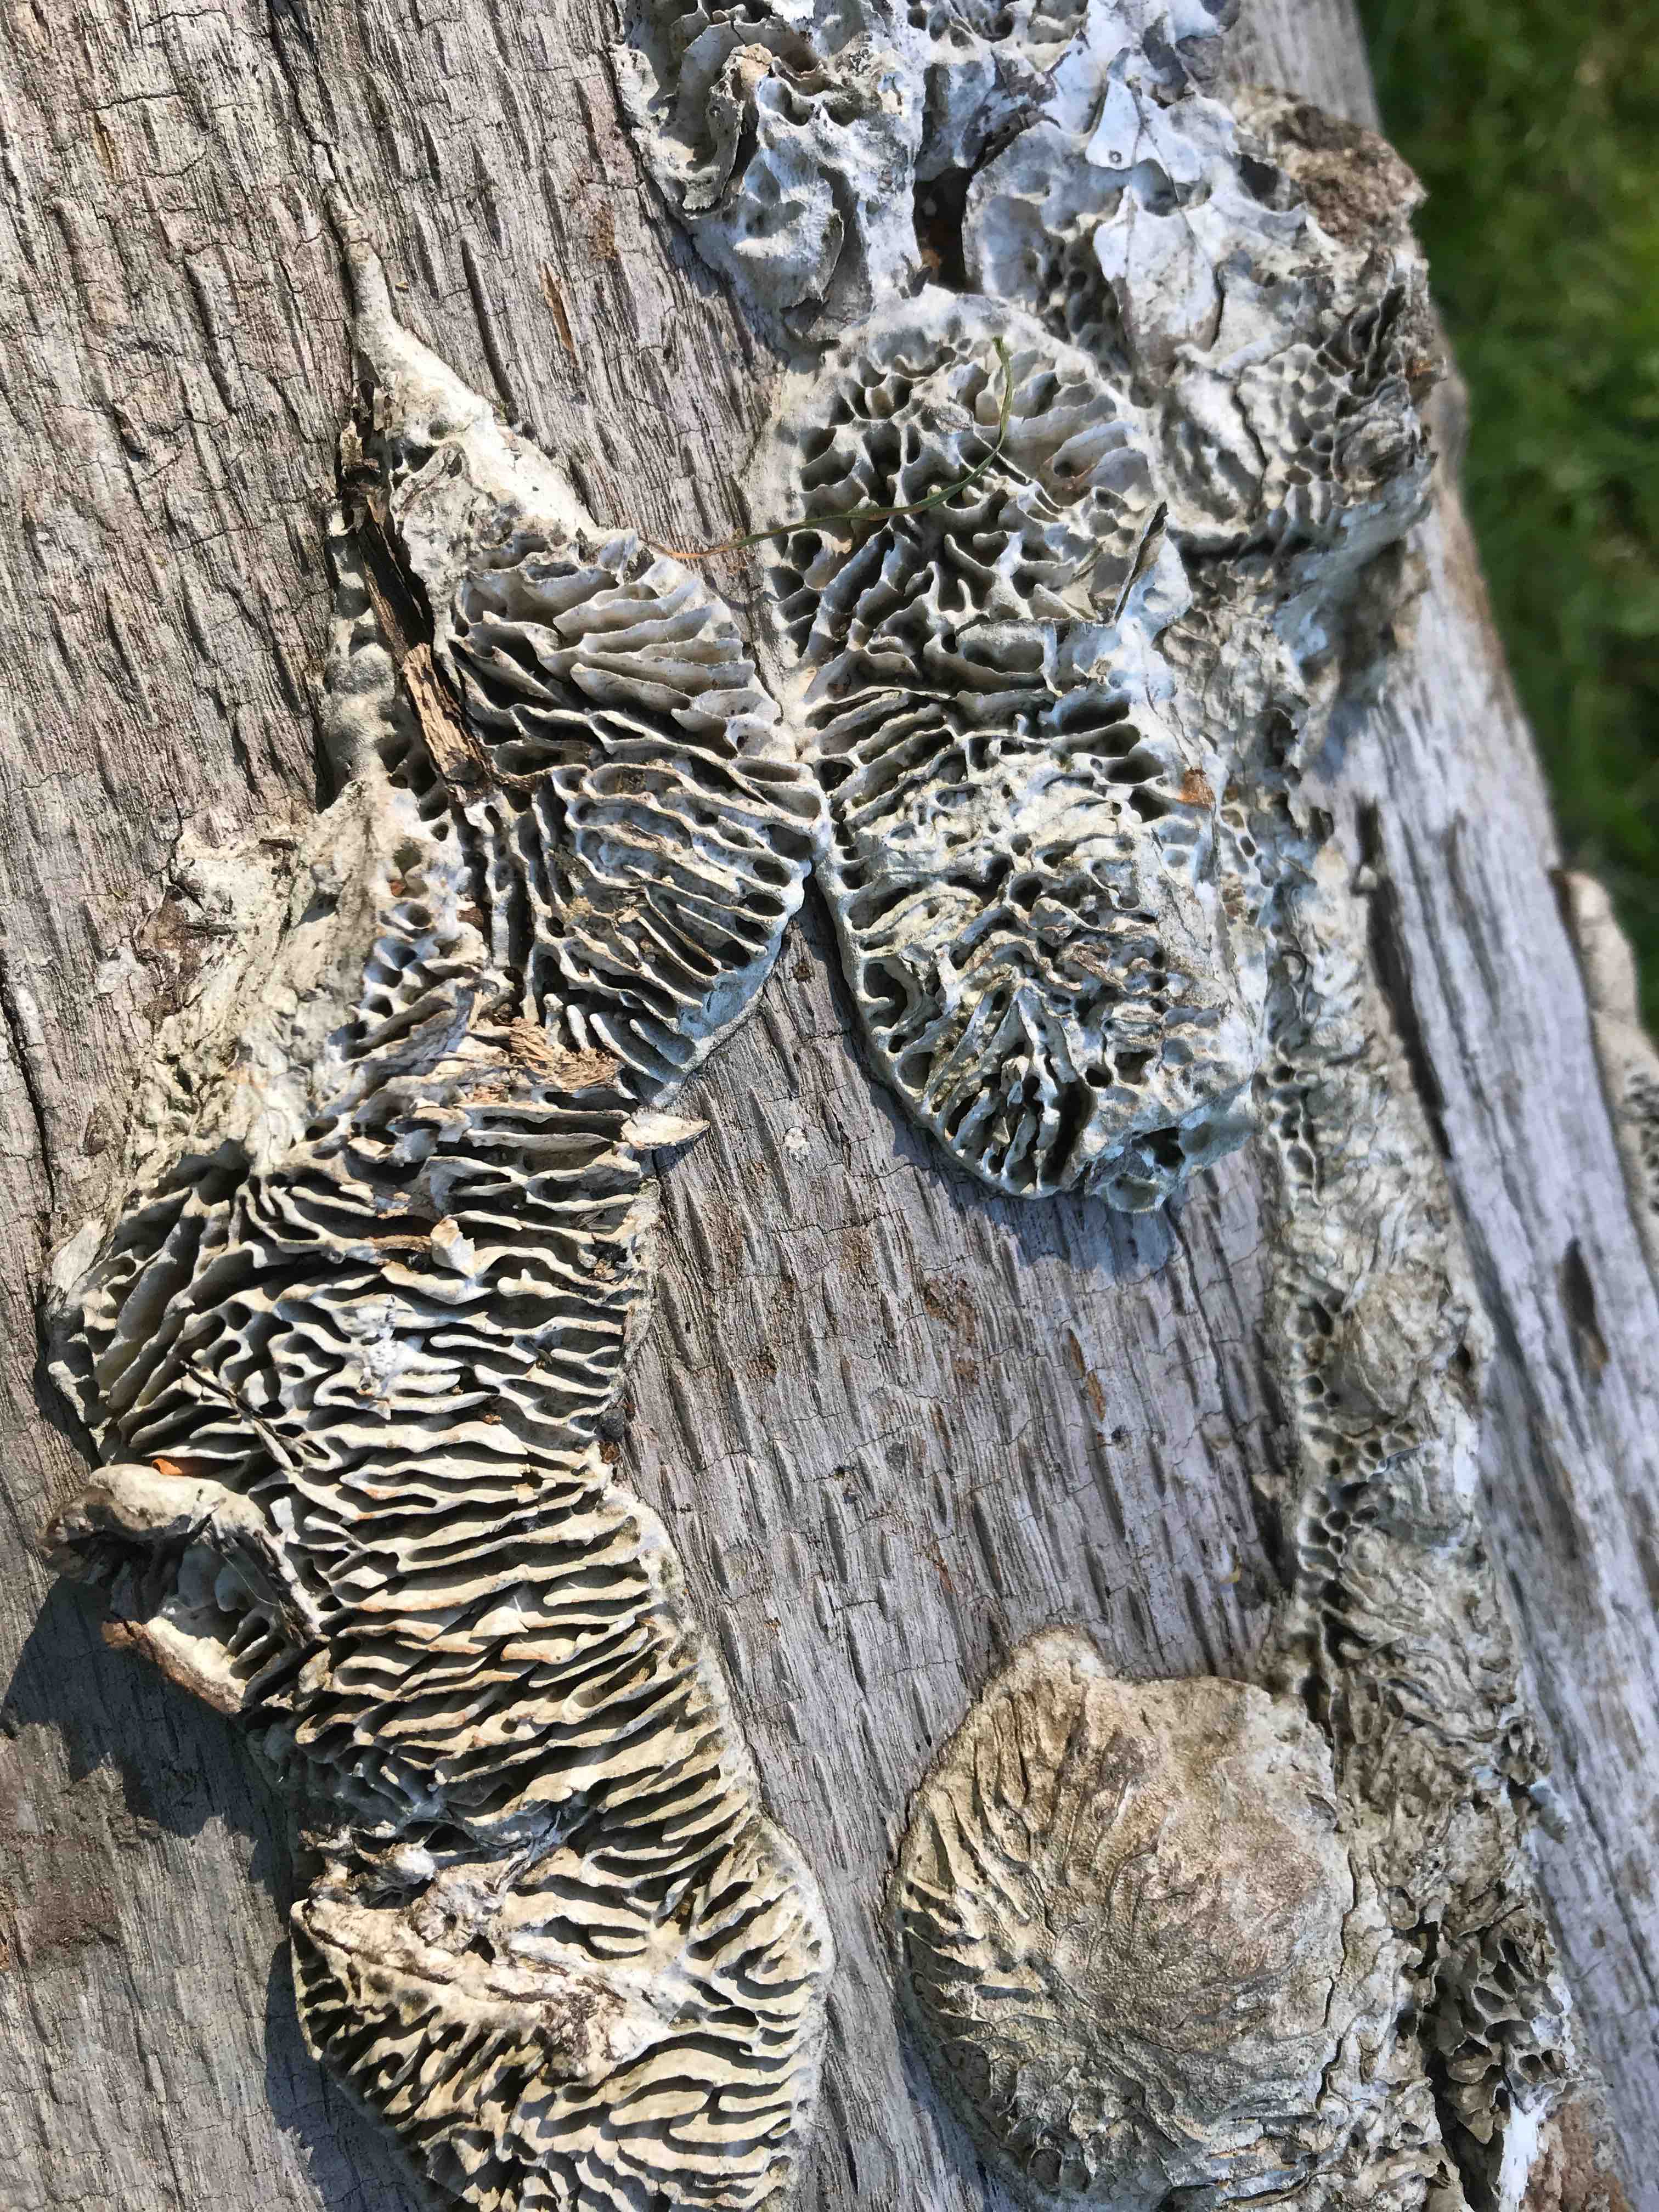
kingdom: Fungi
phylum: Basidiomycota
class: Agaricomycetes
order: Polyporales
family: Fomitopsidaceae
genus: Daedalea
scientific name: Daedalea quercina
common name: ege-labyrintsvamp
